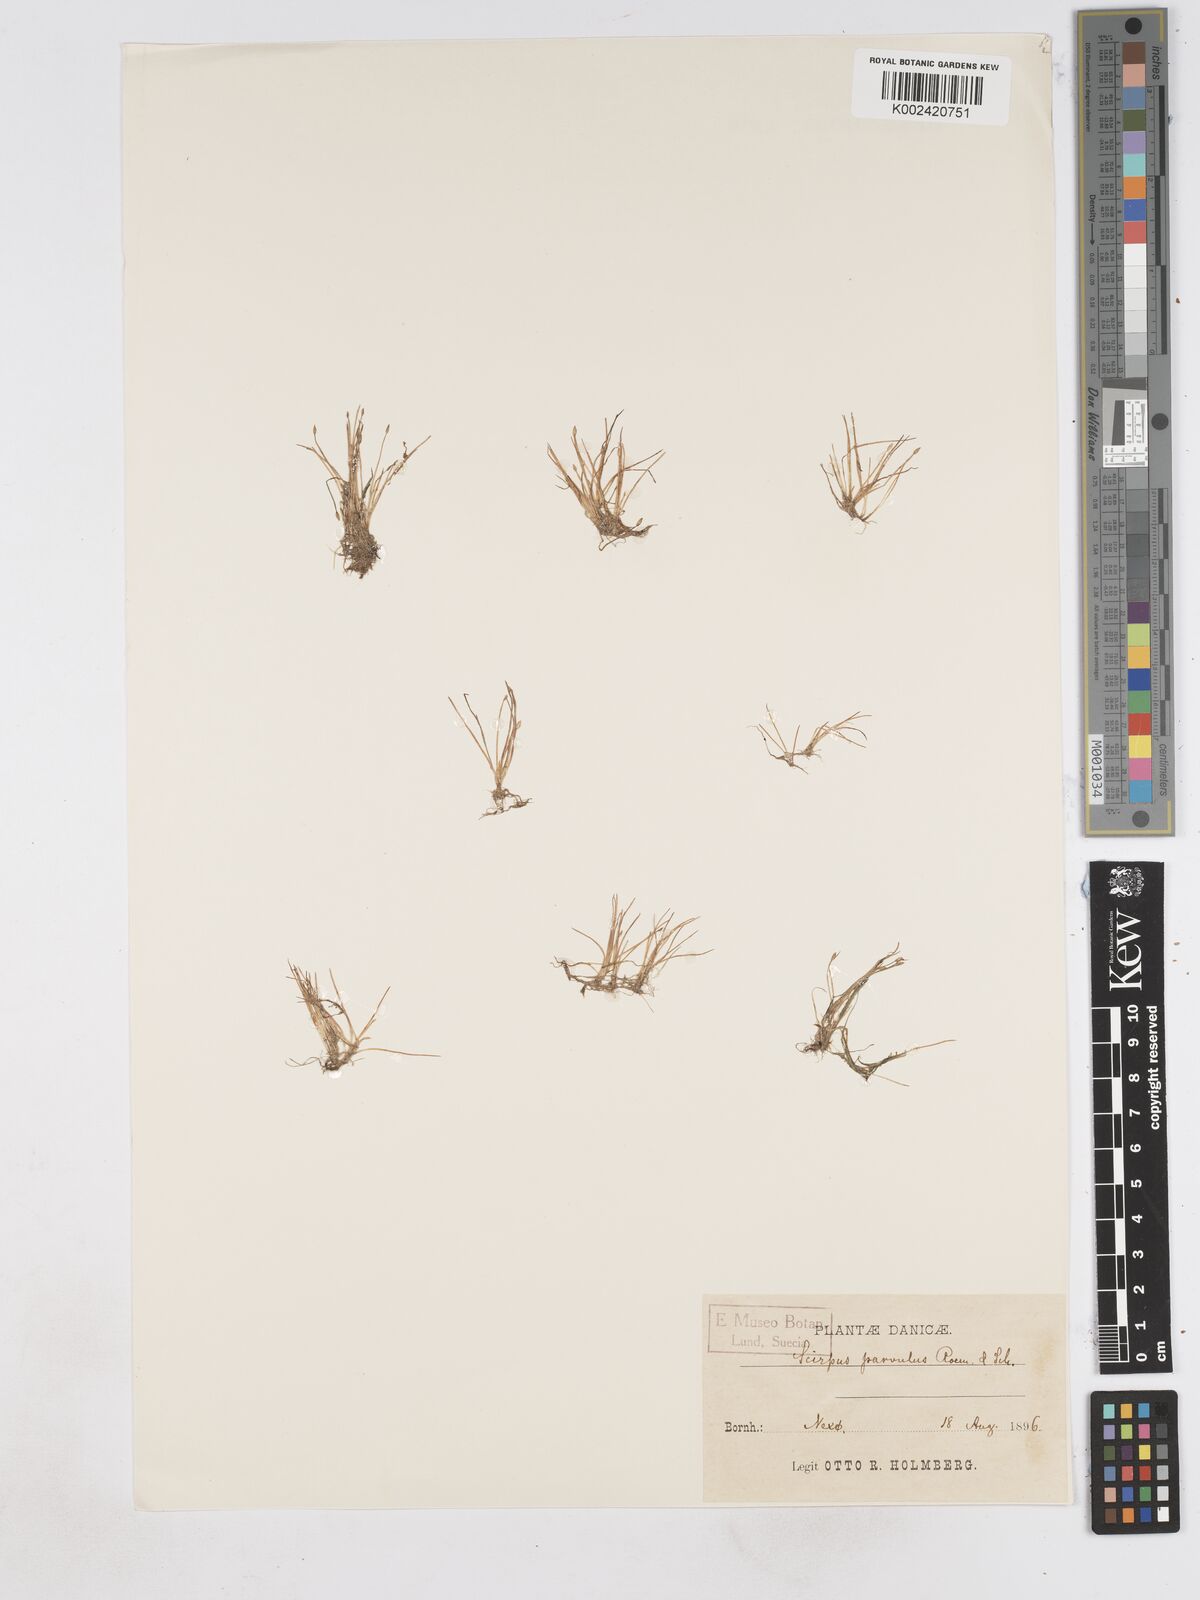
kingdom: Plantae
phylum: Tracheophyta
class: Liliopsida
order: Poales
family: Cyperaceae
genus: Eleocharis
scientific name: Eleocharis parvula
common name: Dwarf spike-rush
